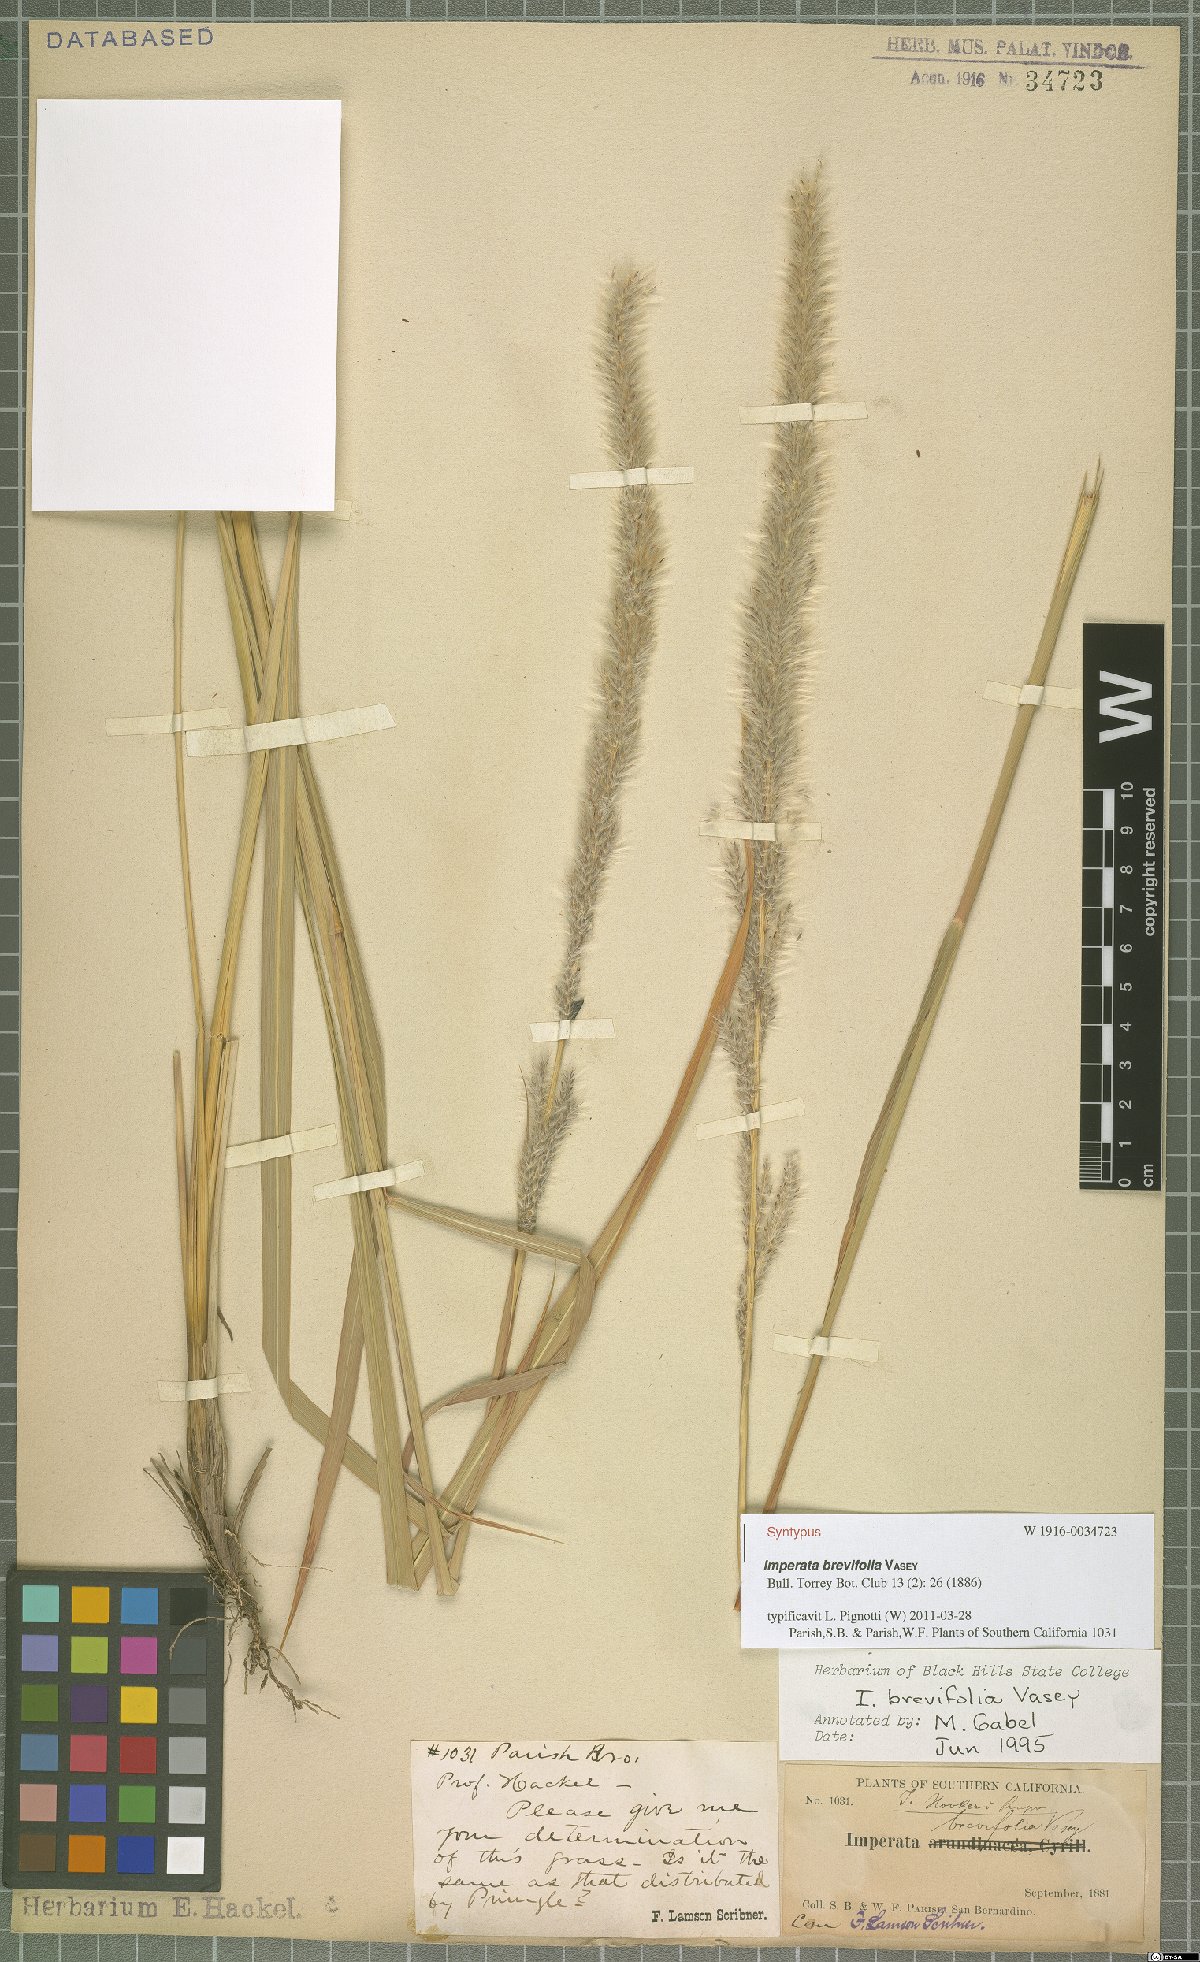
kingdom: Plantae
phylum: Tracheophyta
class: Liliopsida
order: Poales
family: Poaceae
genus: Imperata
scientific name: Imperata brevifolia
